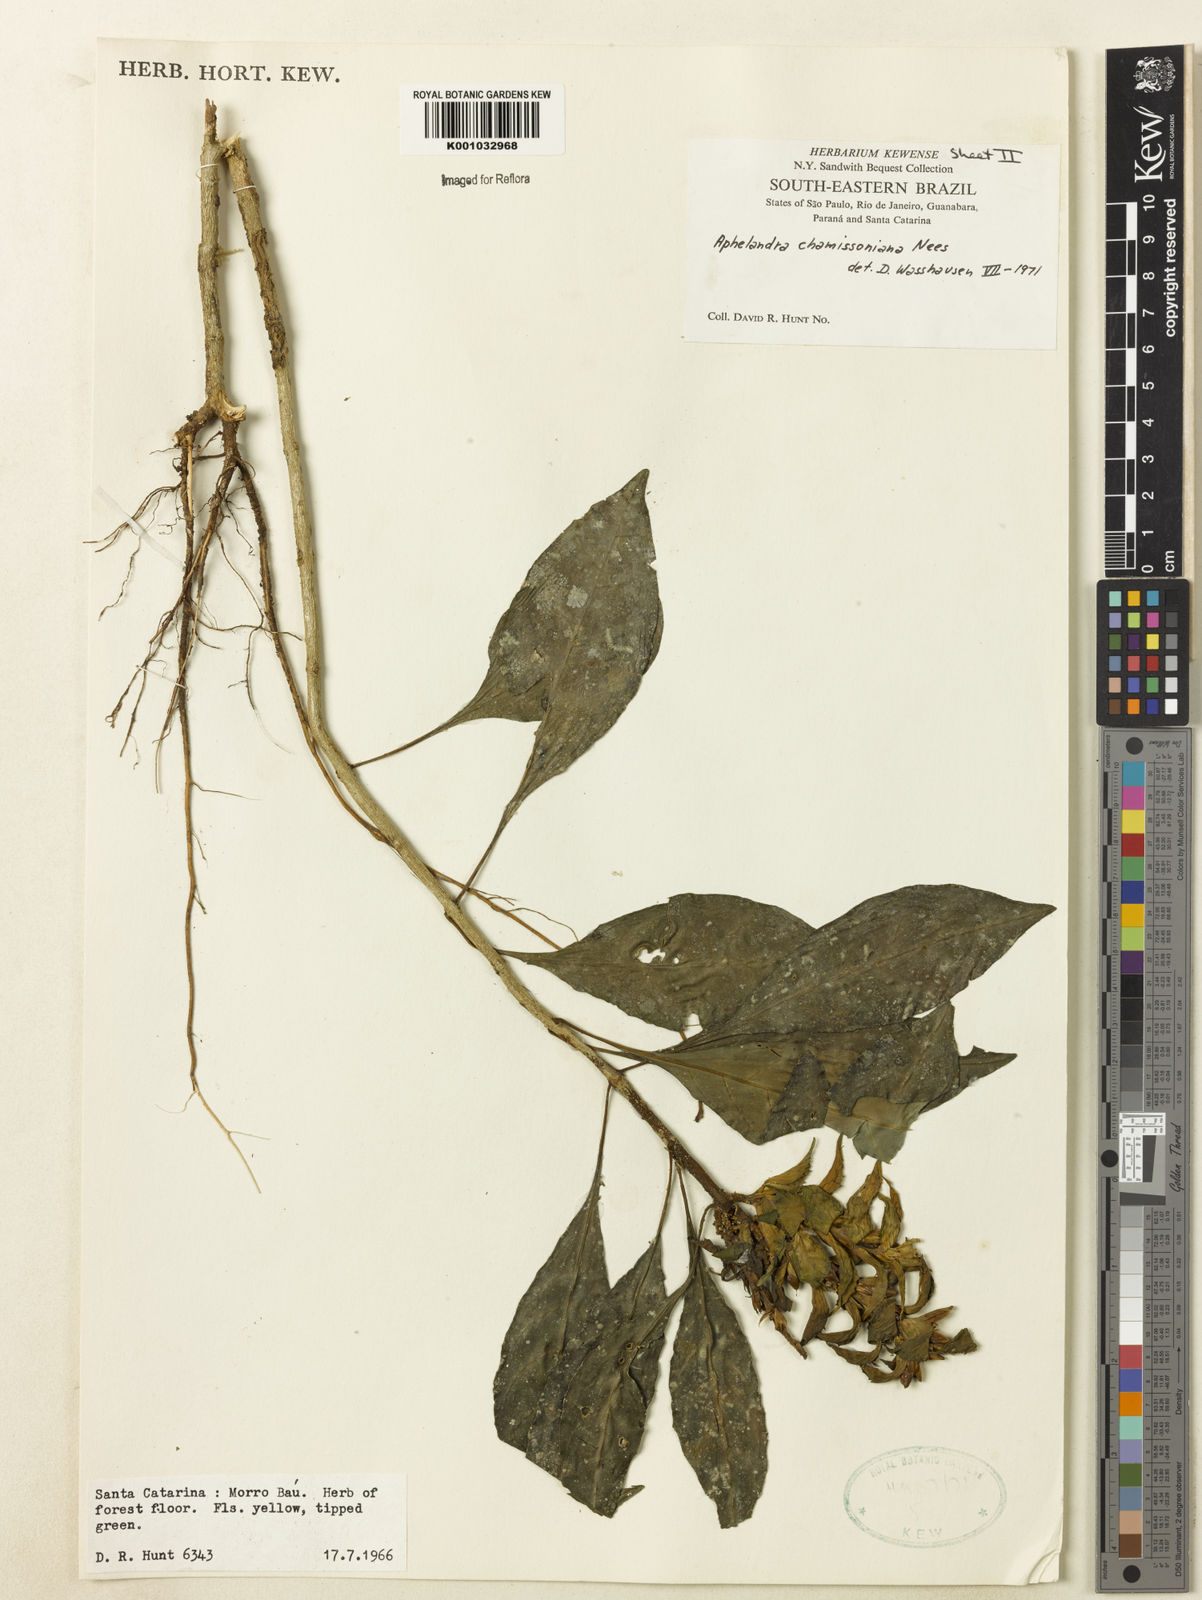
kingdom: Plantae
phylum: Tracheophyta
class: Magnoliopsida
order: Lamiales
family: Acanthaceae
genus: Aphelandra
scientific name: Aphelandra chamissoniana
